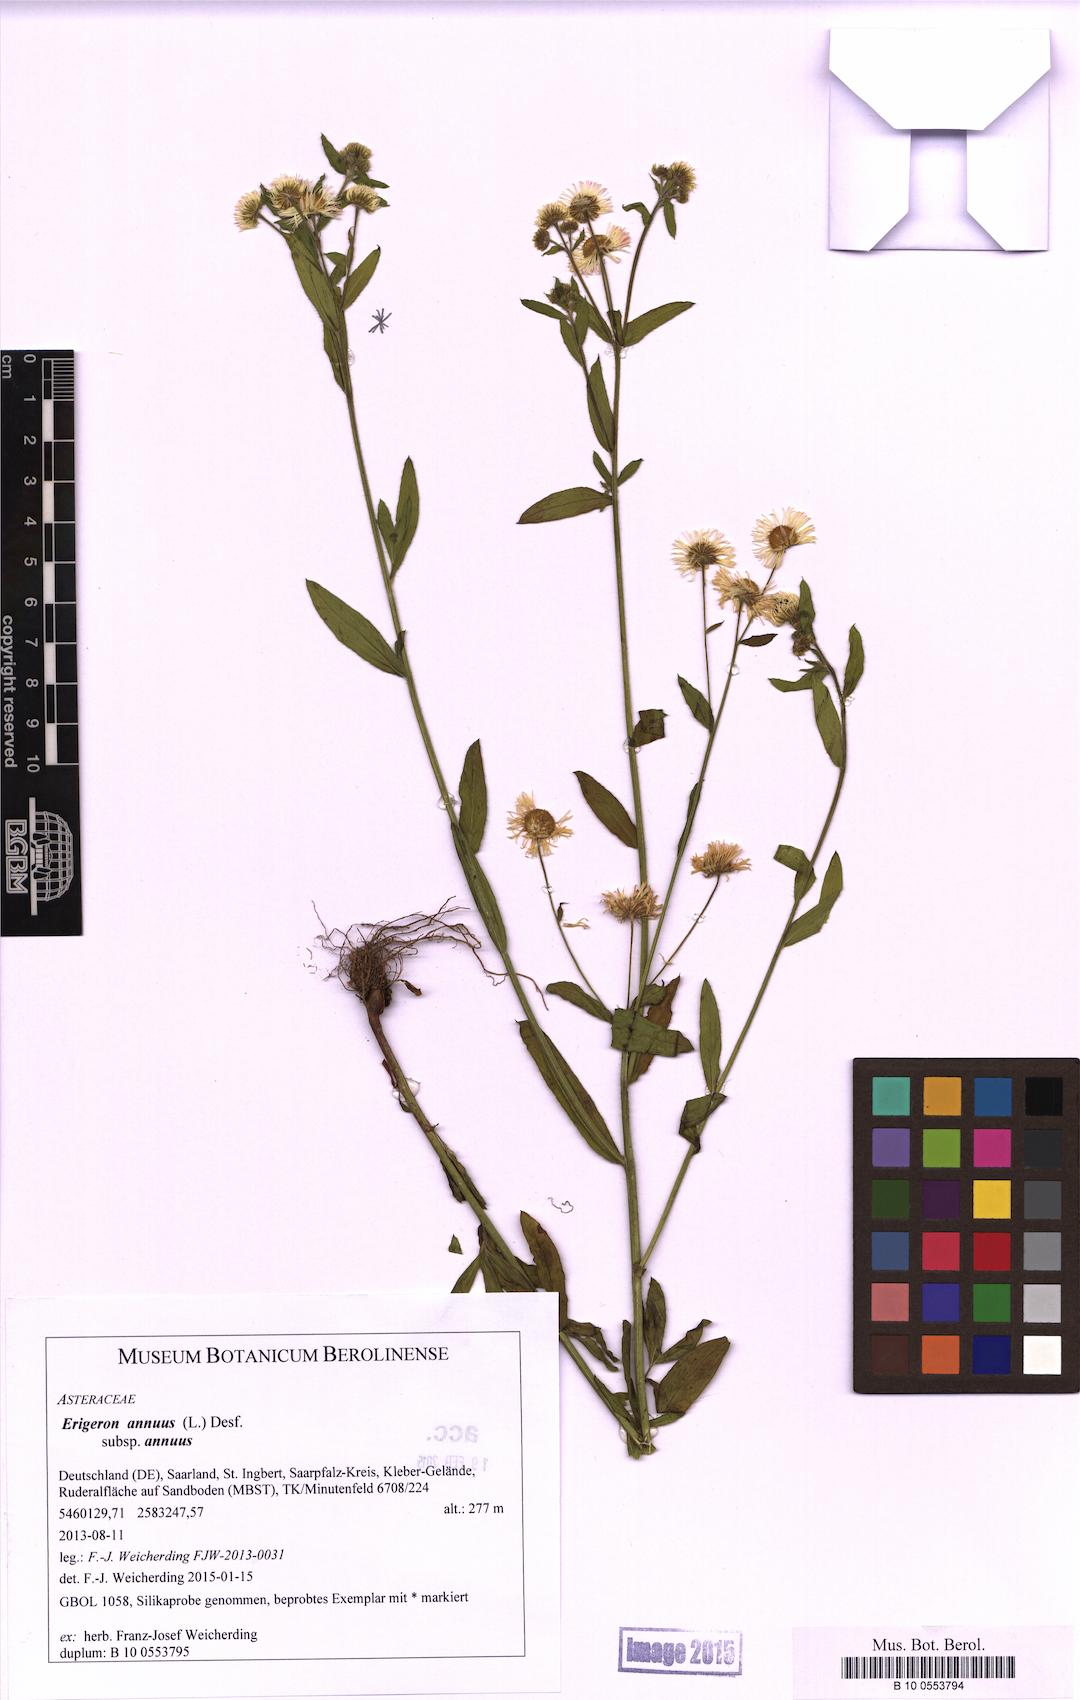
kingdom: Plantae
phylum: Tracheophyta
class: Magnoliopsida
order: Asterales
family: Asteraceae
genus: Erigeron
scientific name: Erigeron annuus
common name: Tall fleabane
